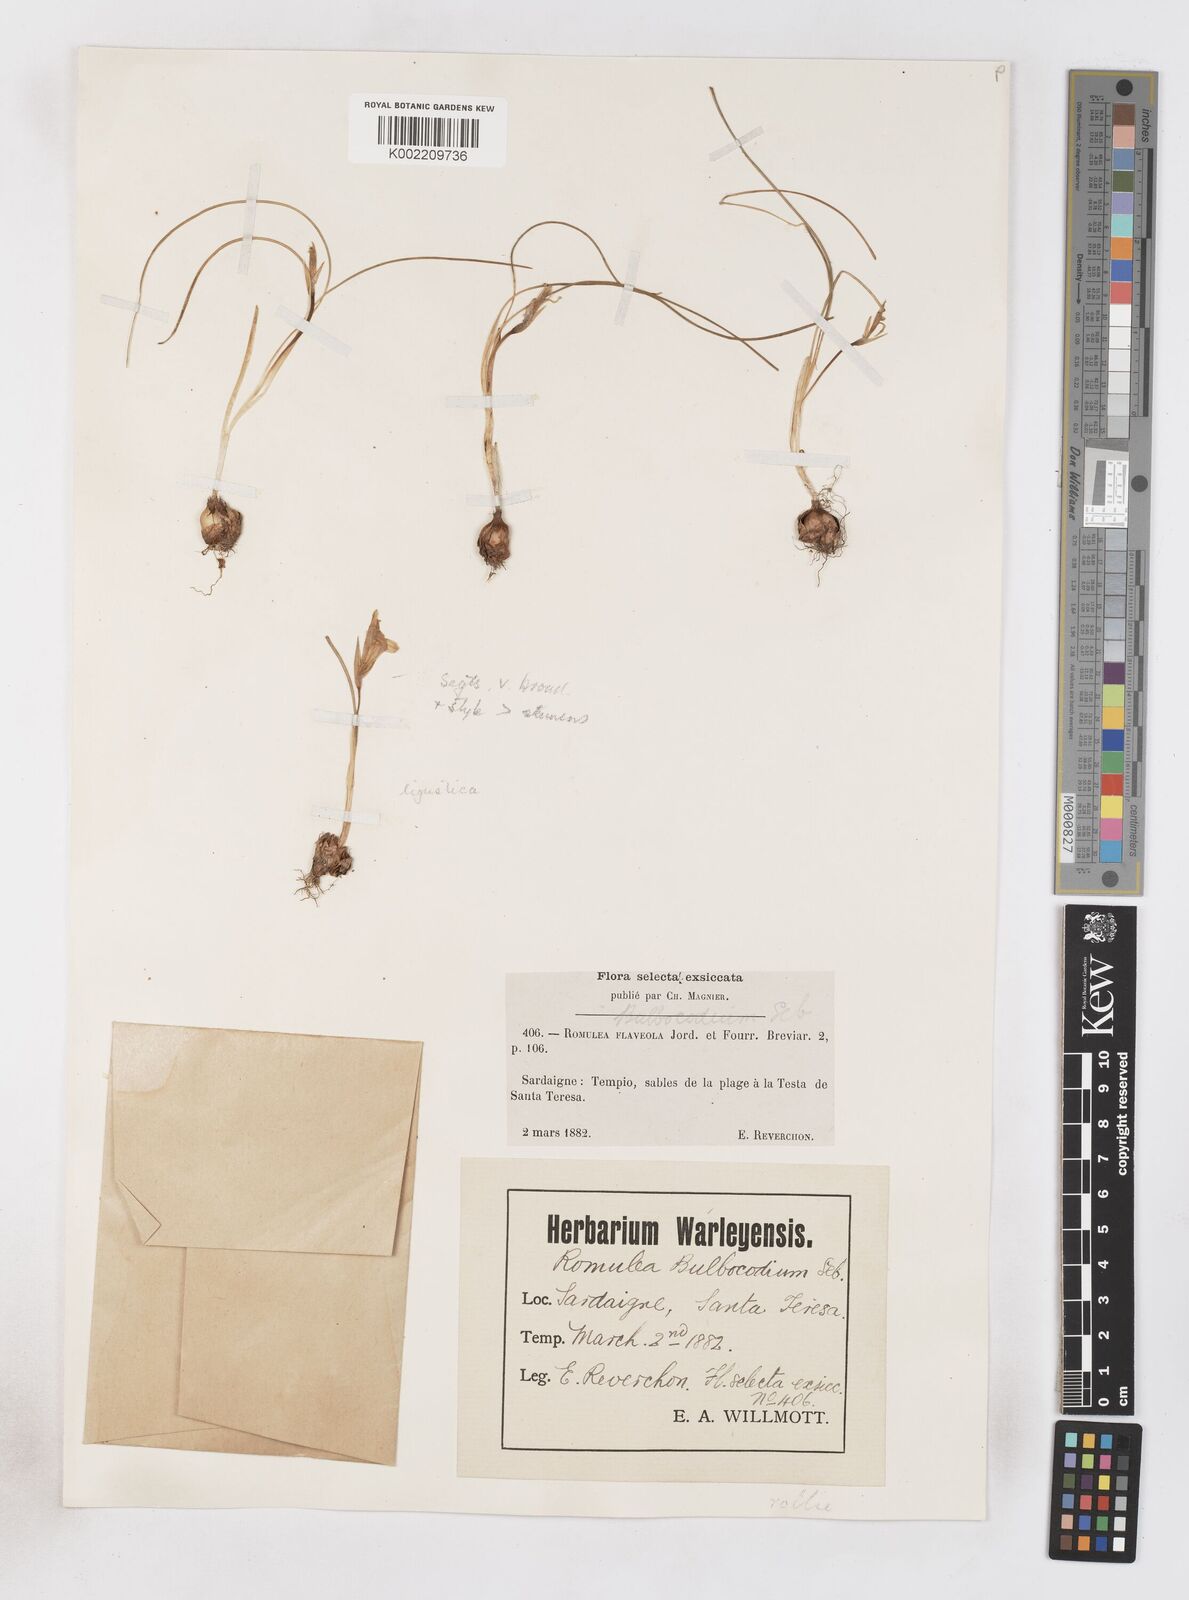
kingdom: Plantae
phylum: Tracheophyta
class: Liliopsida
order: Asparagales
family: Iridaceae
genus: Romulea
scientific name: Romulea columnae
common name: Sand-crocus
